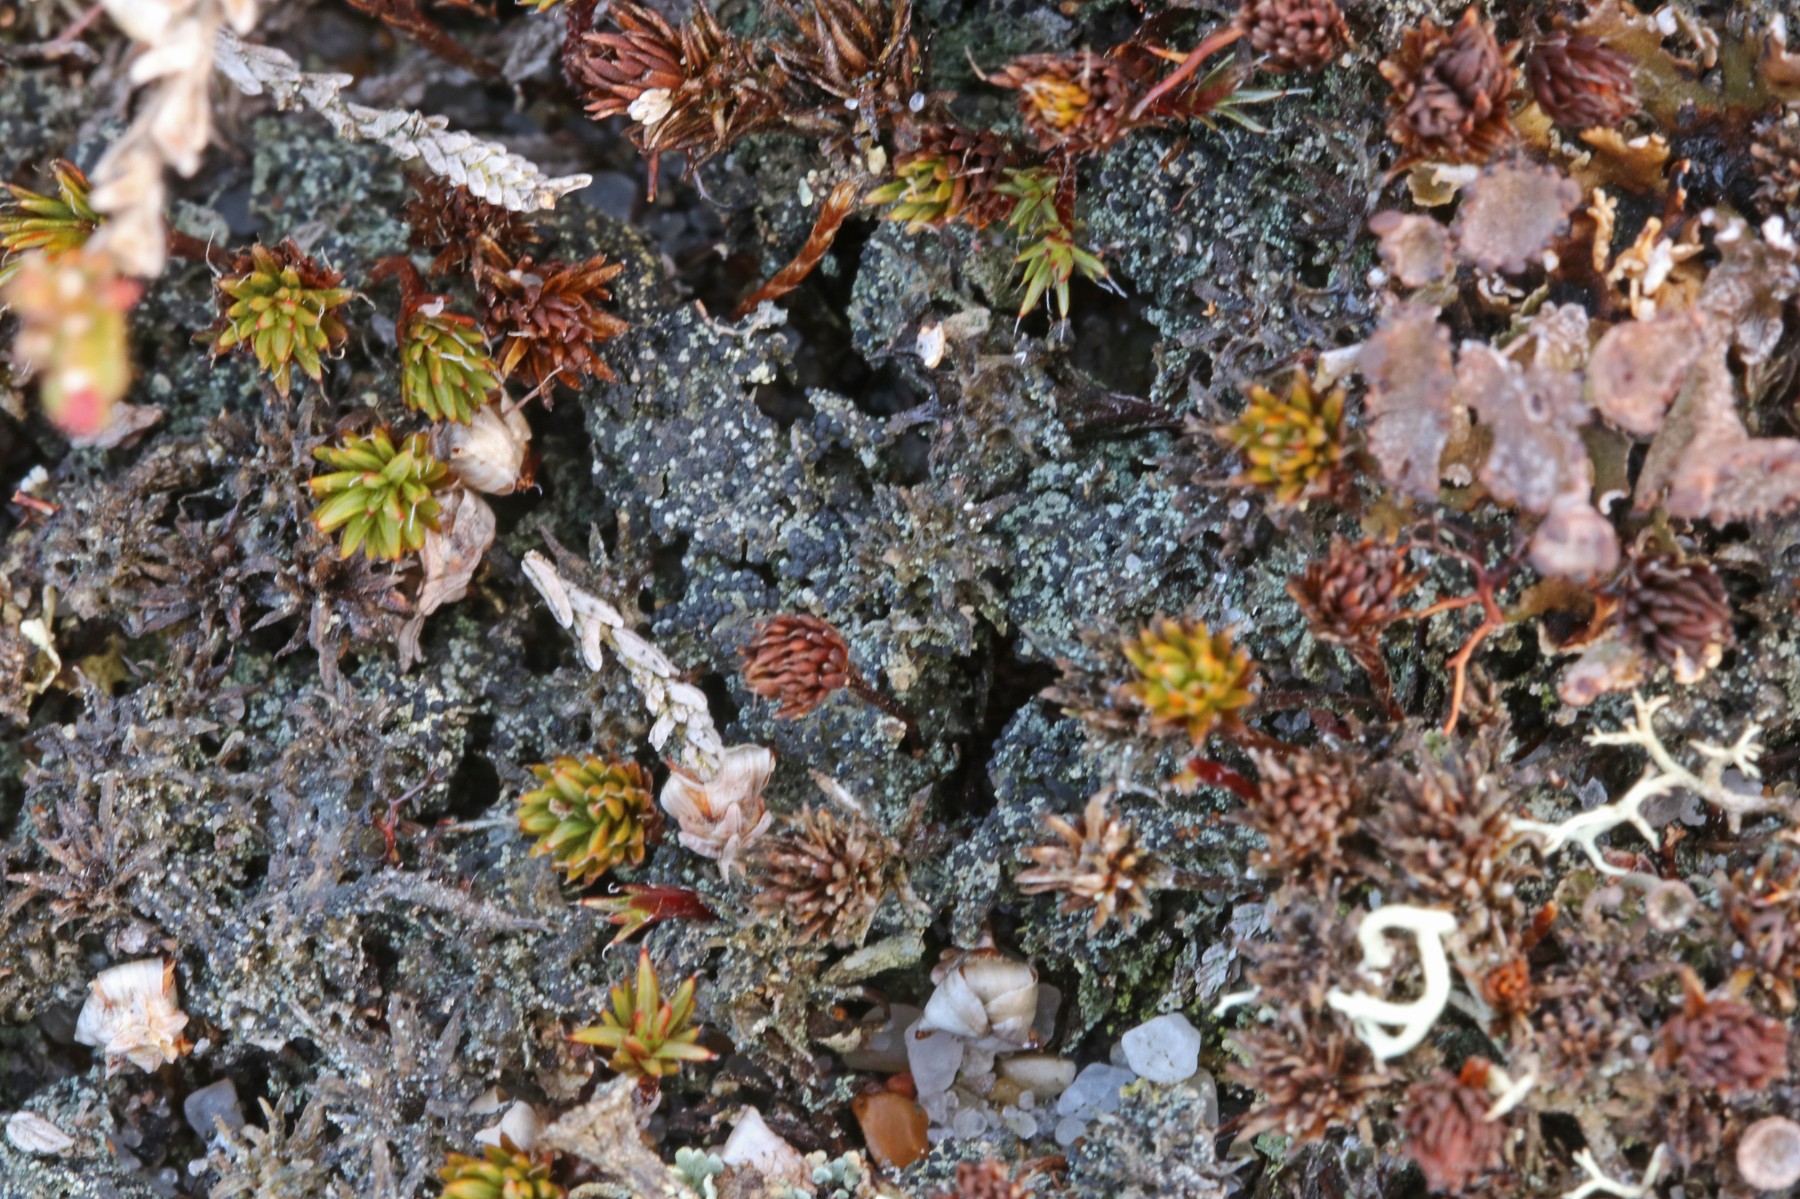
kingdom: Fungi
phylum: Ascomycota
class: Lecanoromycetes
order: Lecanorales
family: Byssolomataceae
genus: Micarea
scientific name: Micarea lignaria
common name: tørve-knaplav
